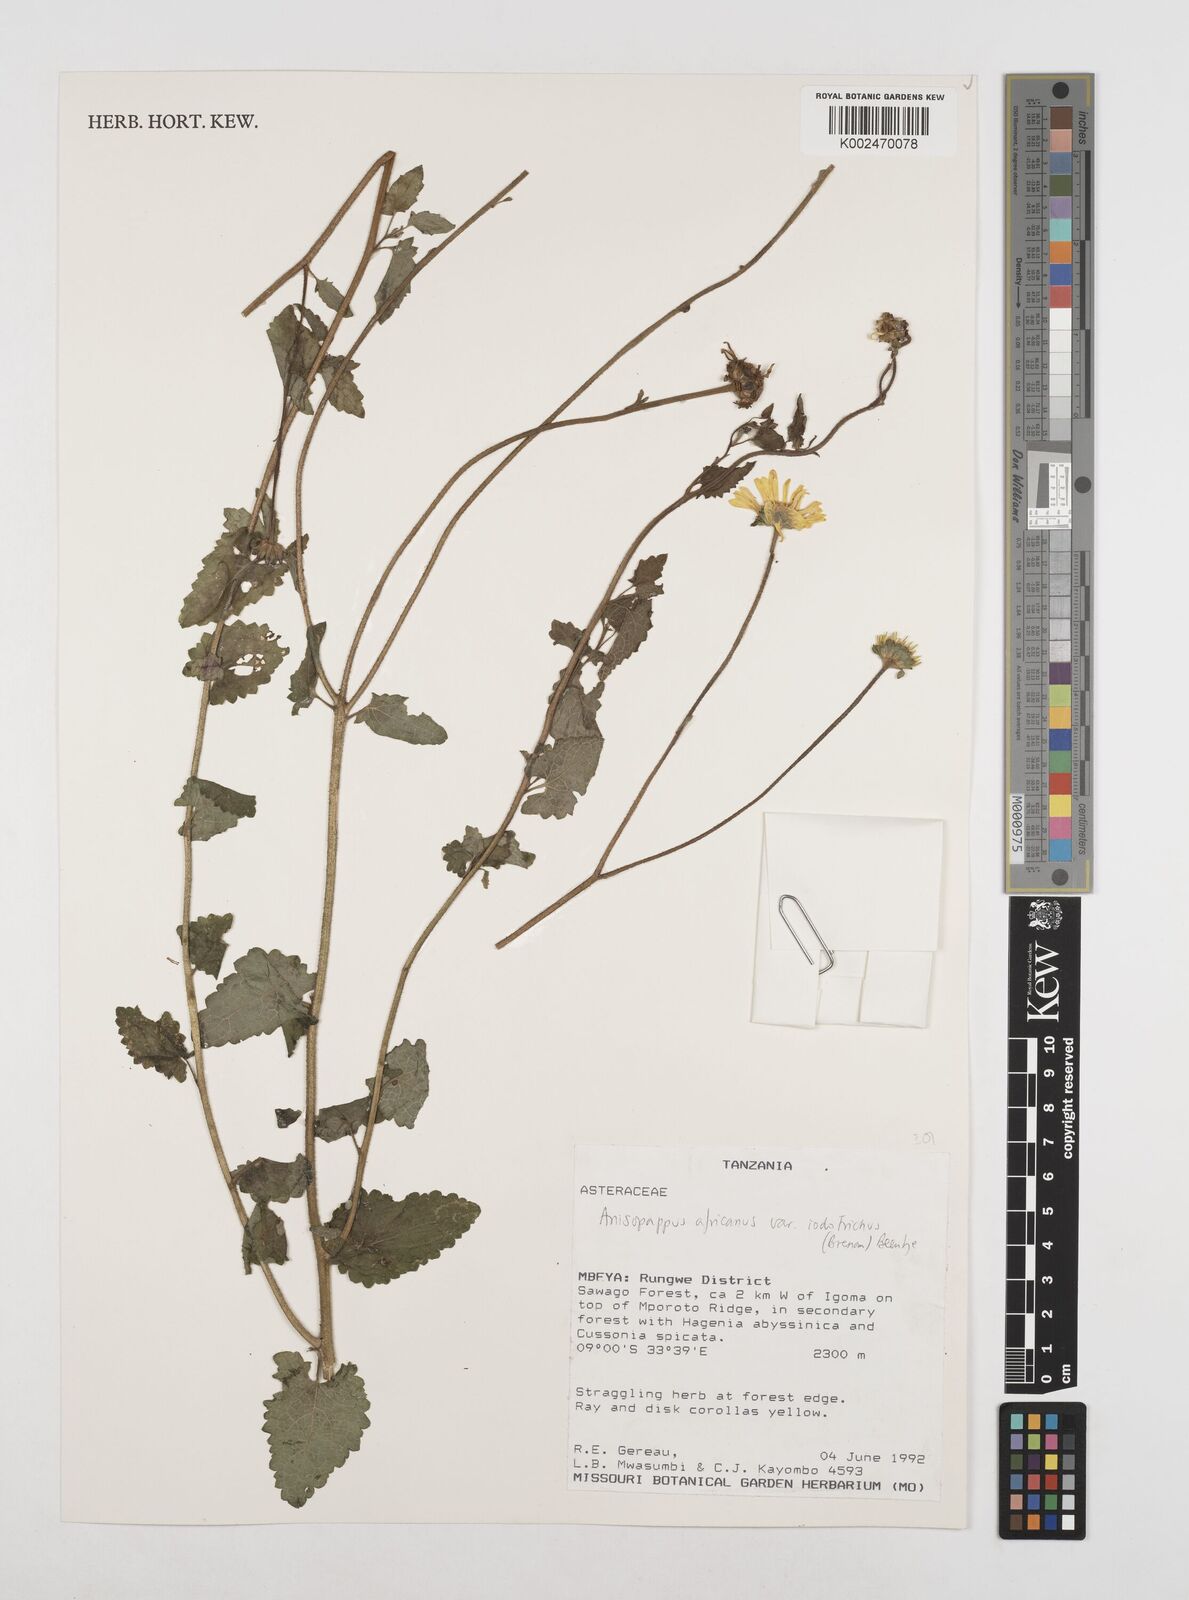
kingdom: Plantae
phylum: Tracheophyta
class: Magnoliopsida
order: Asterales
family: Asteraceae
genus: Anisopappus
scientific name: Anisopappus buchwaldii
